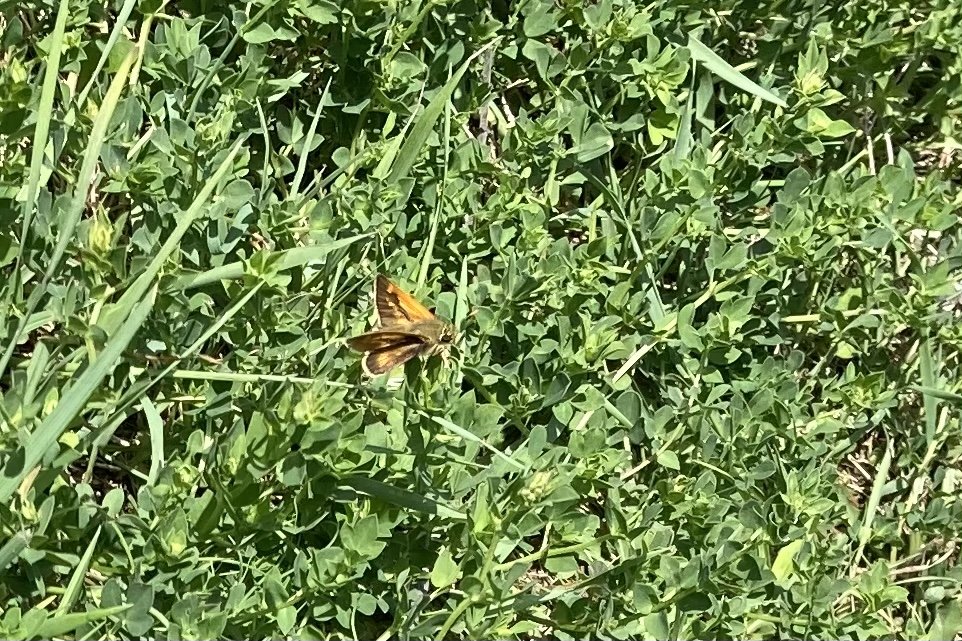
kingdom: Animalia
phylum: Arthropoda
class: Insecta
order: Lepidoptera
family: Hesperiidae
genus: Polites
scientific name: Polites
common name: Long Dash Skipper
